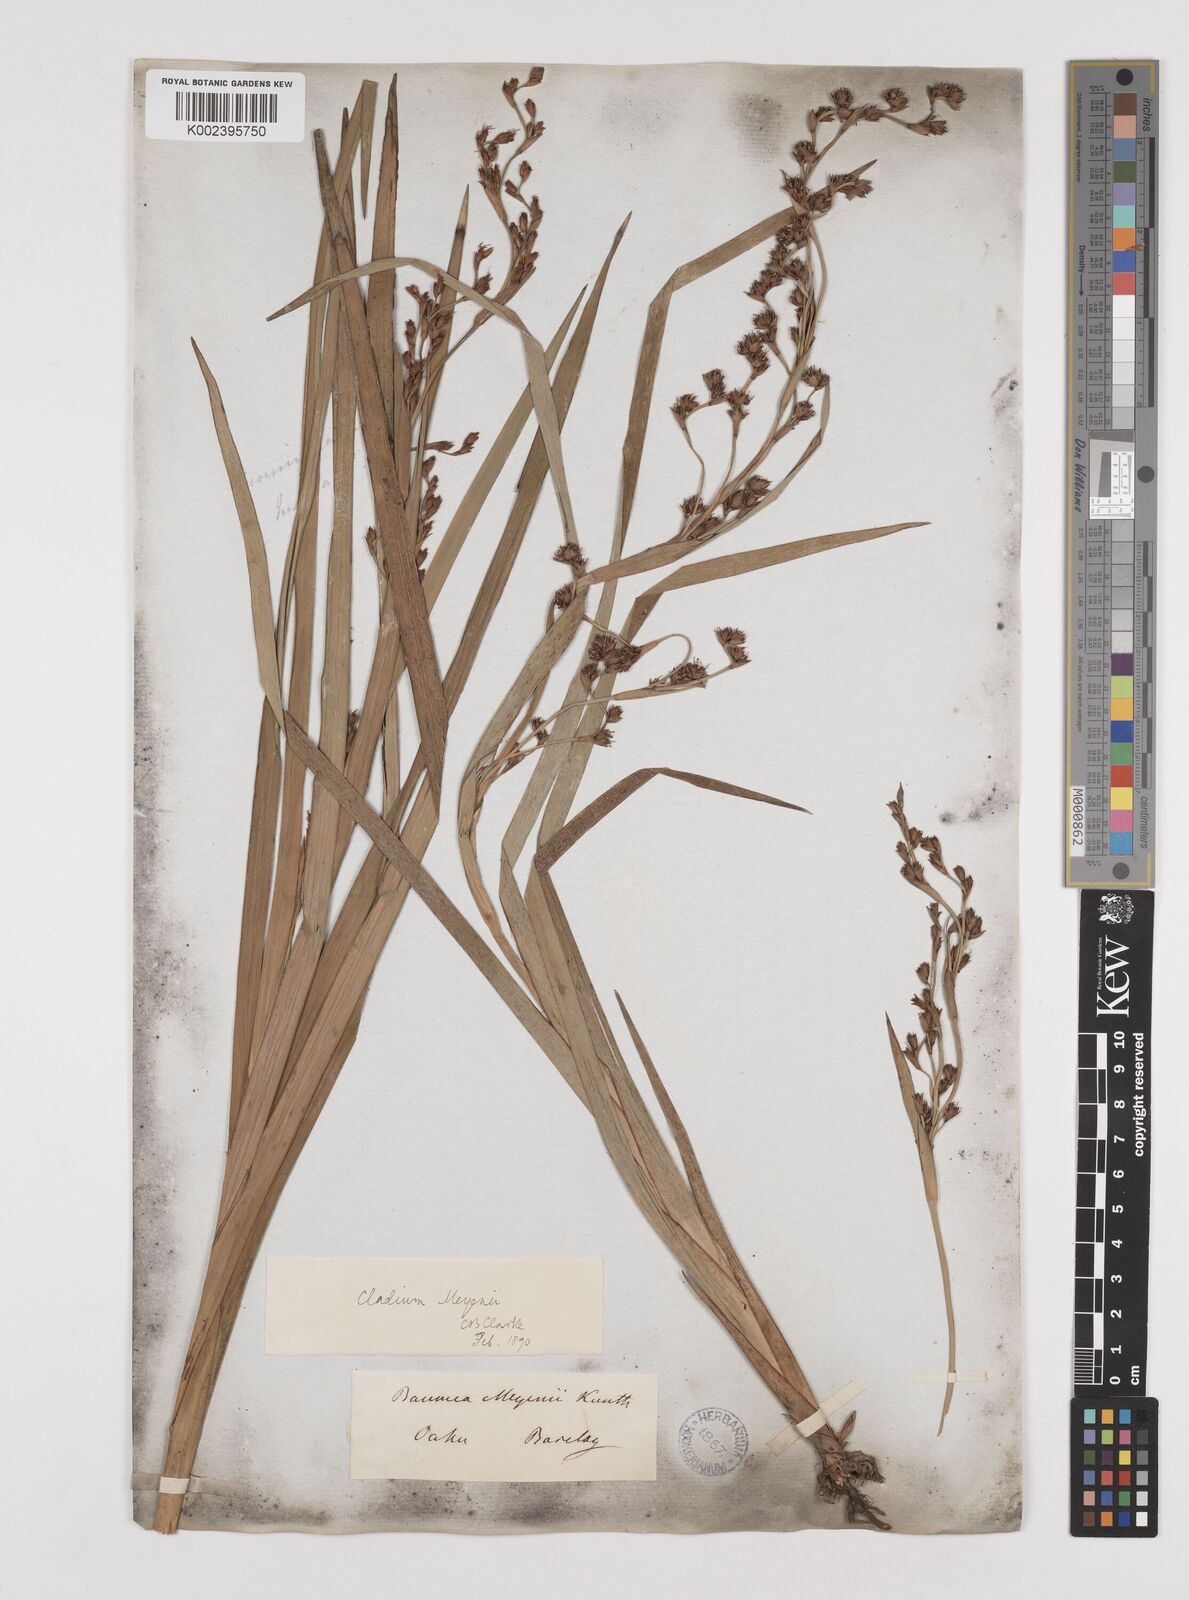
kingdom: Plantae
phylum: Tracheophyta
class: Liliopsida
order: Poales
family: Cyperaceae
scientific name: Cyperaceae
